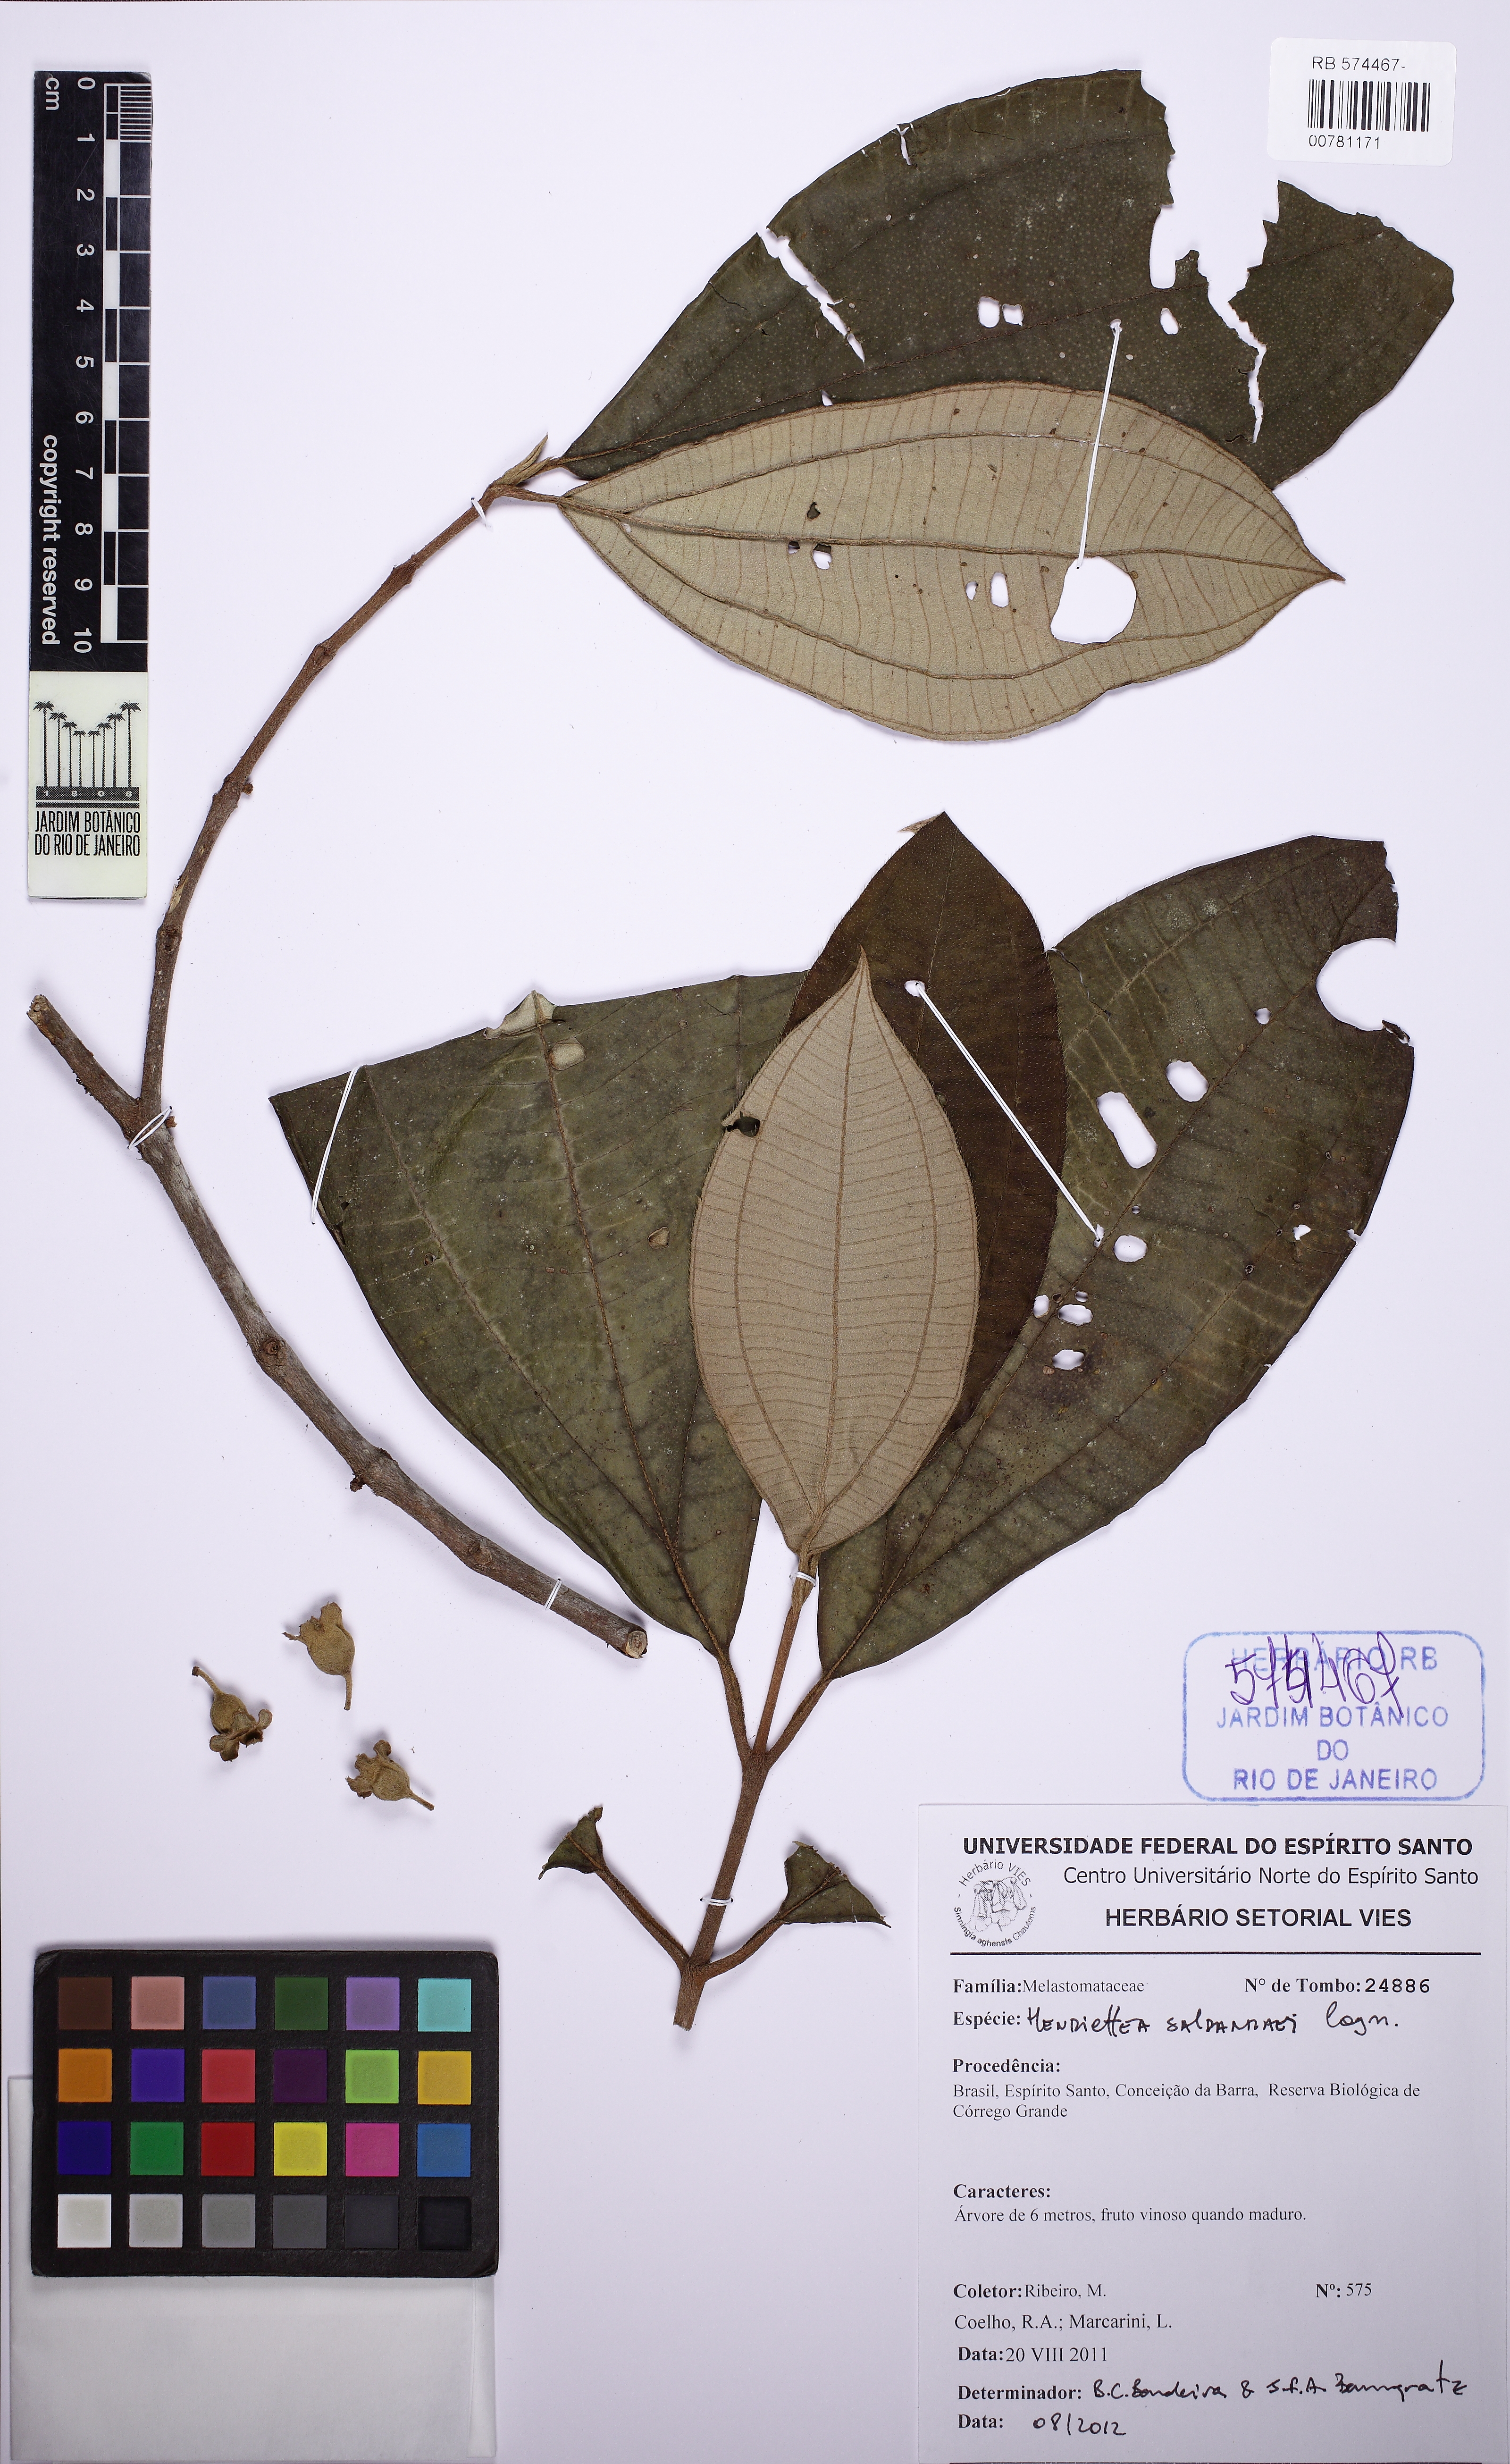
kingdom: Plantae
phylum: Tracheophyta
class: Magnoliopsida
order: Myrtales
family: Melastomataceae
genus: Henriettea
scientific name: Henriettea saldanhaei
